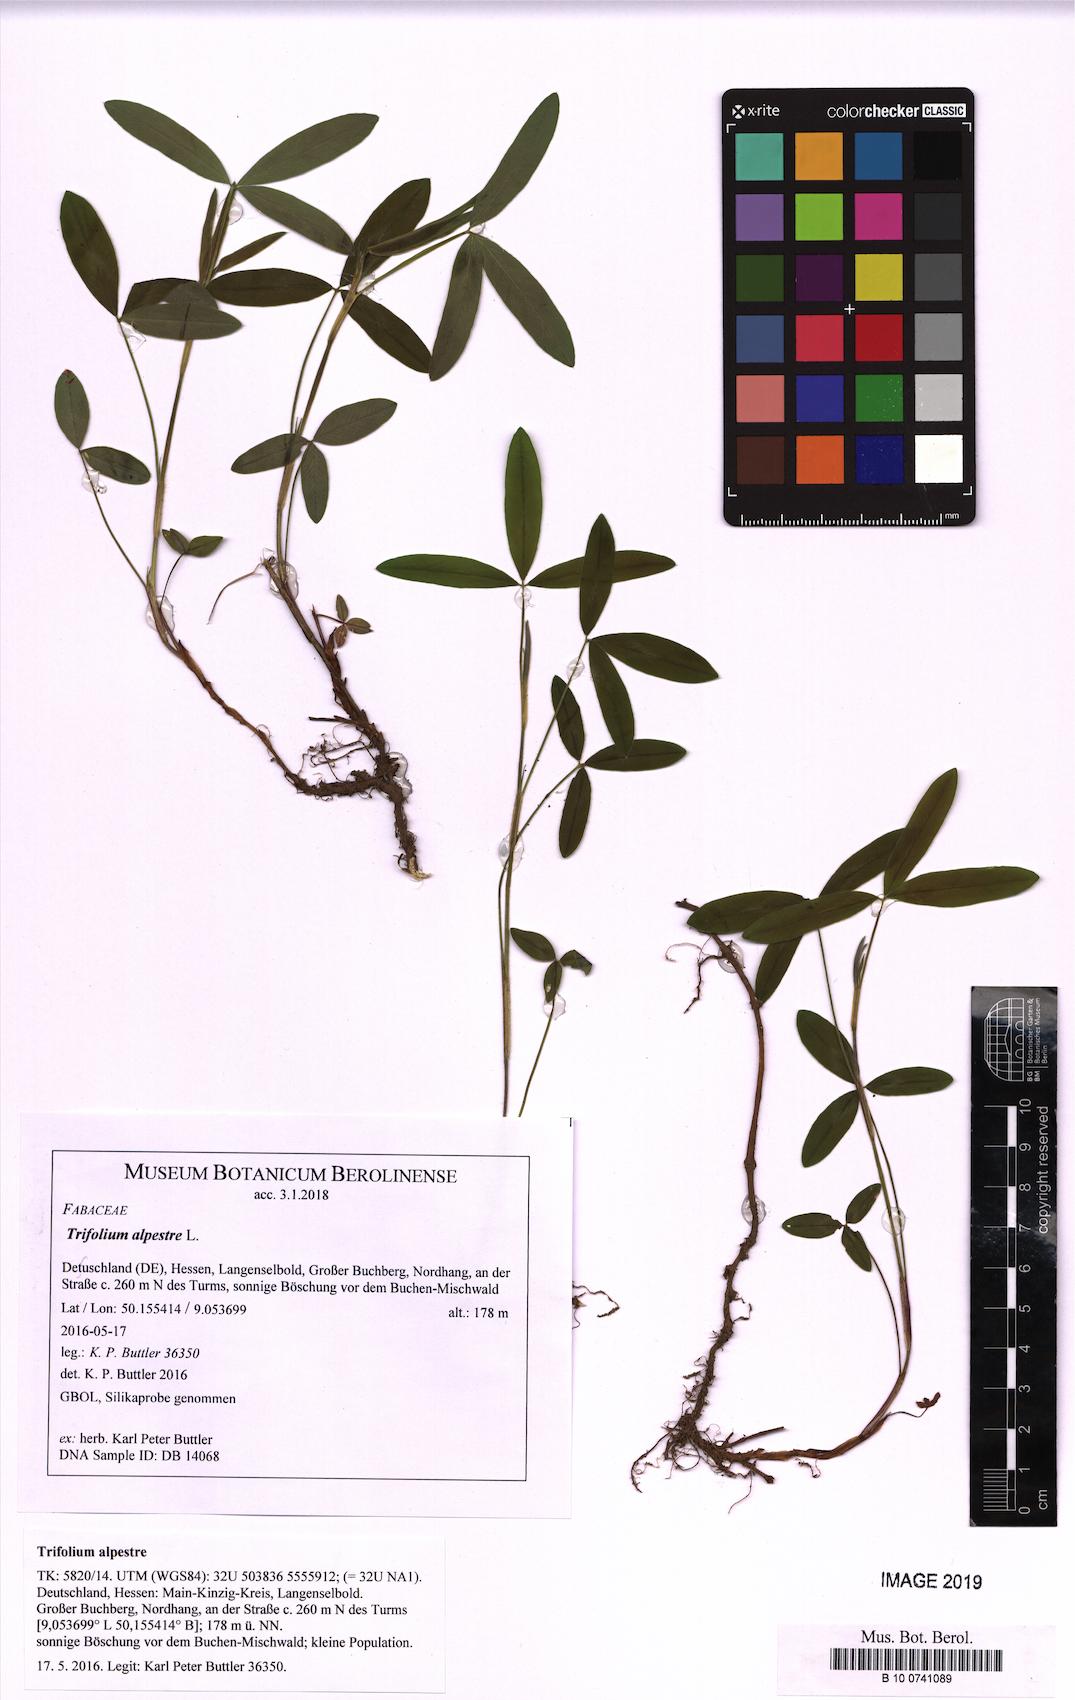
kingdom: Plantae
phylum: Tracheophyta
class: Magnoliopsida
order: Fabales
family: Fabaceae
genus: Trifolium
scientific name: Trifolium alpestre
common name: Owl-head clover
